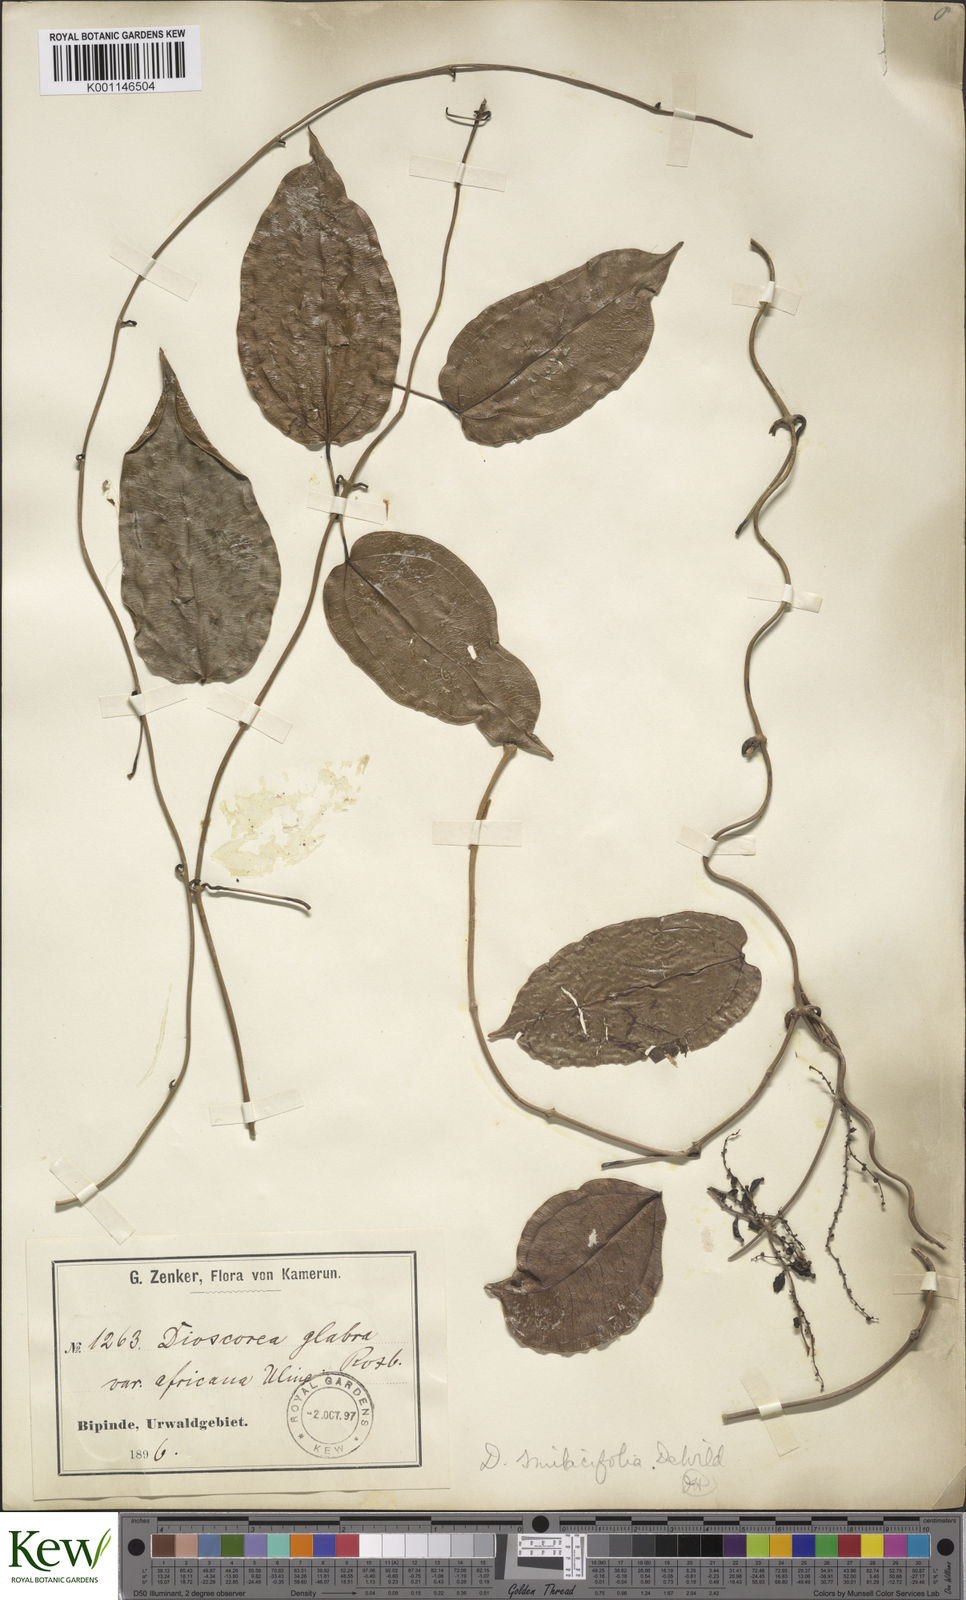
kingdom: Plantae
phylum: Tracheophyta
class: Liliopsida
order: Dioscoreales
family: Dioscoreaceae
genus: Dioscorea
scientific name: Dioscorea smilacifolia
